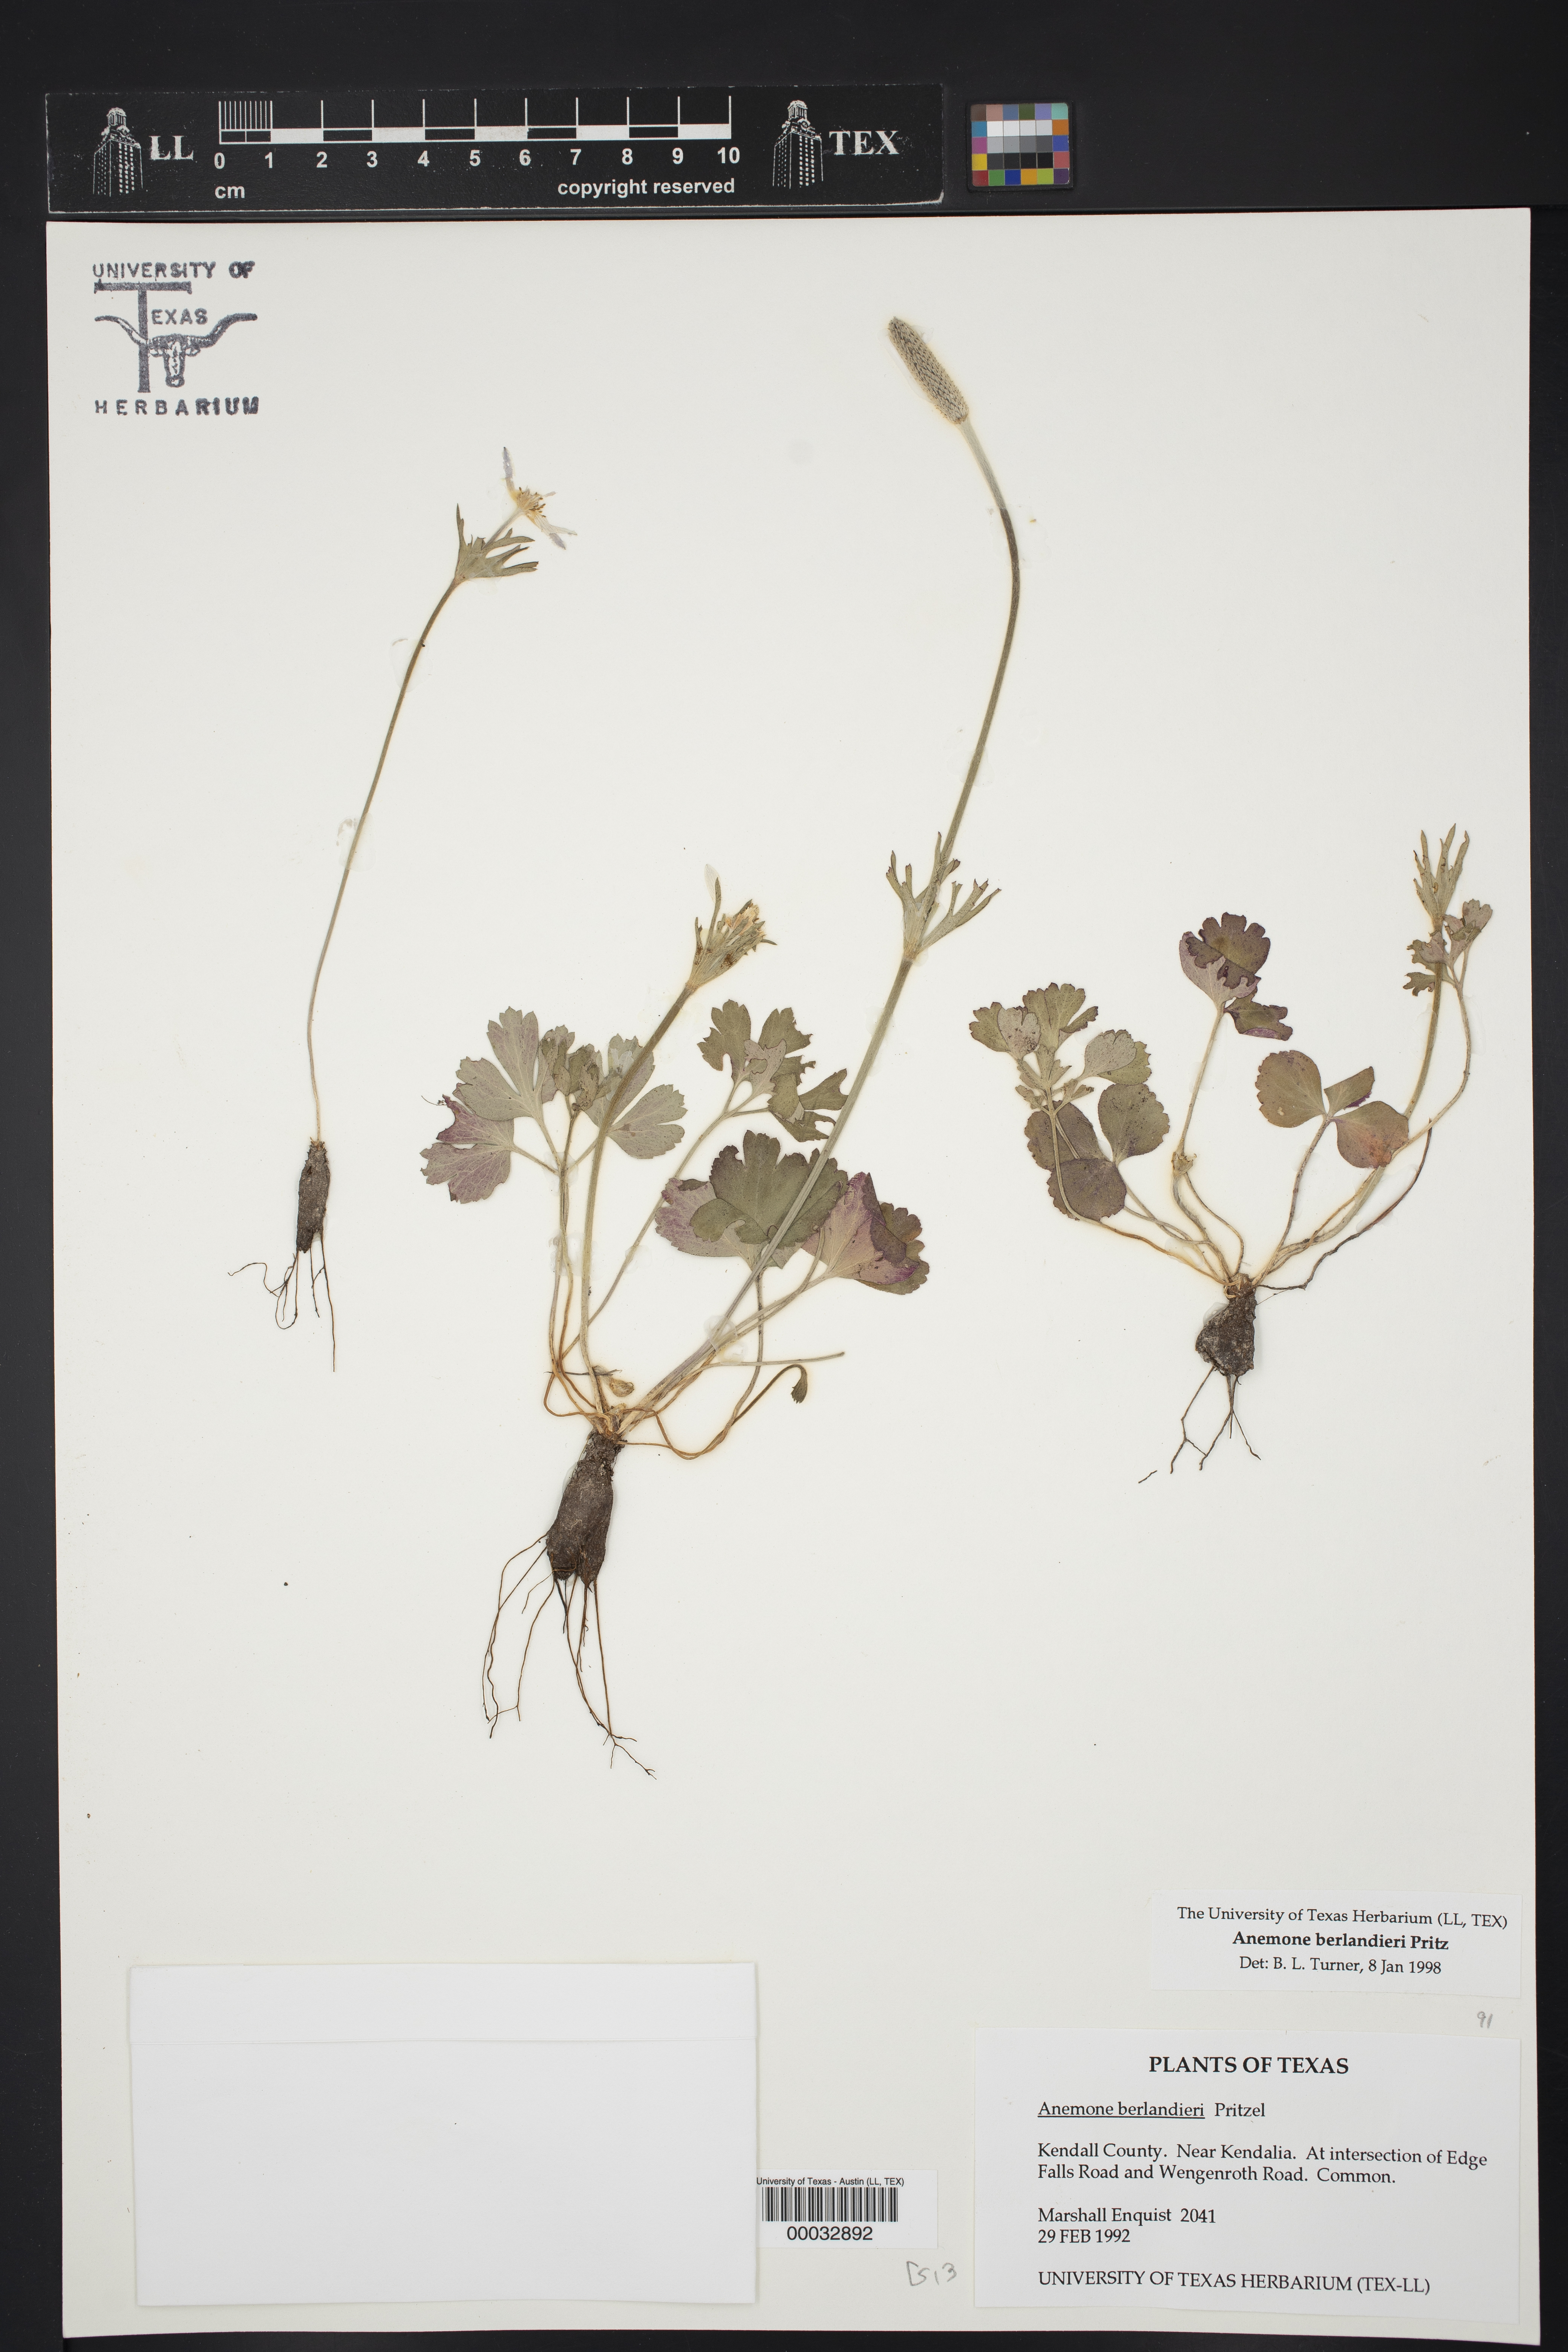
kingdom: Plantae
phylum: Tracheophyta
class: Magnoliopsida
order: Ranunculales
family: Ranunculaceae
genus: Anemone
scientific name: Anemone berlandieri
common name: Ten-petal anemone
